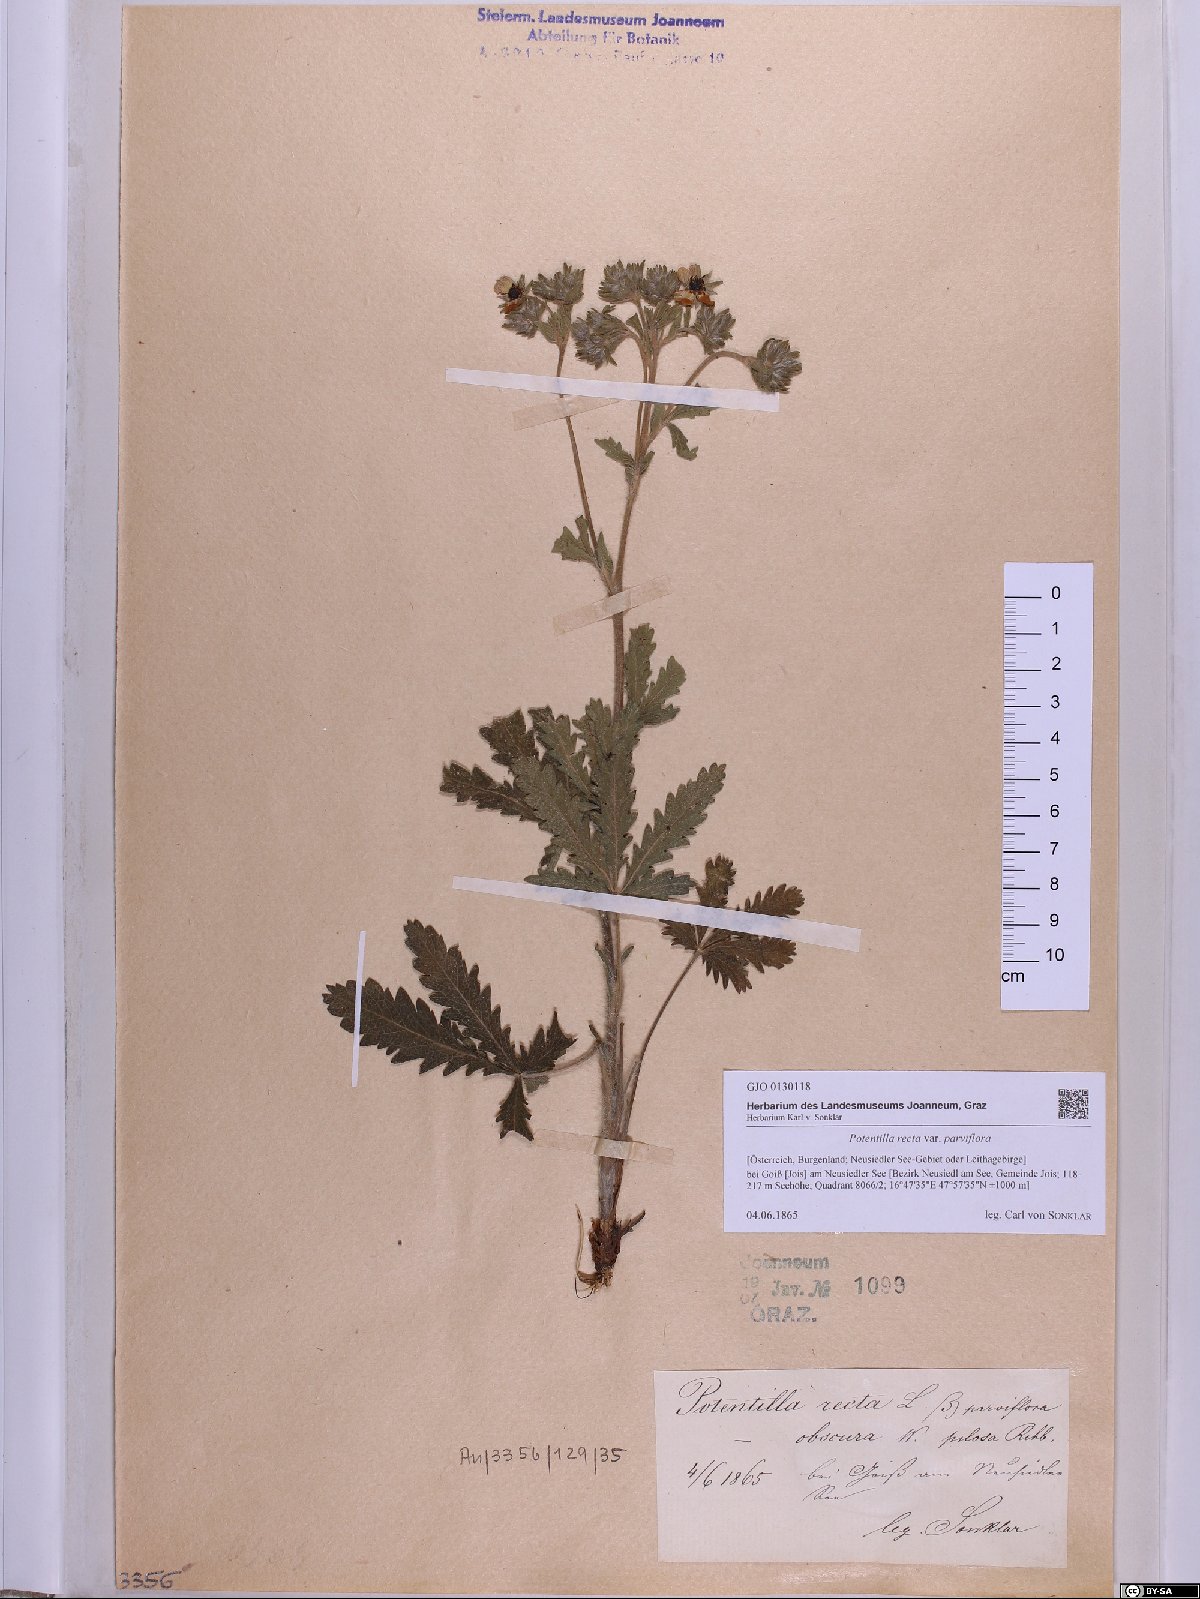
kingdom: Plantae
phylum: Tracheophyta
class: Magnoliopsida
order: Rosales
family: Rosaceae
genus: Potentilla
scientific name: Potentilla recta
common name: Sulphur cinquefoil
